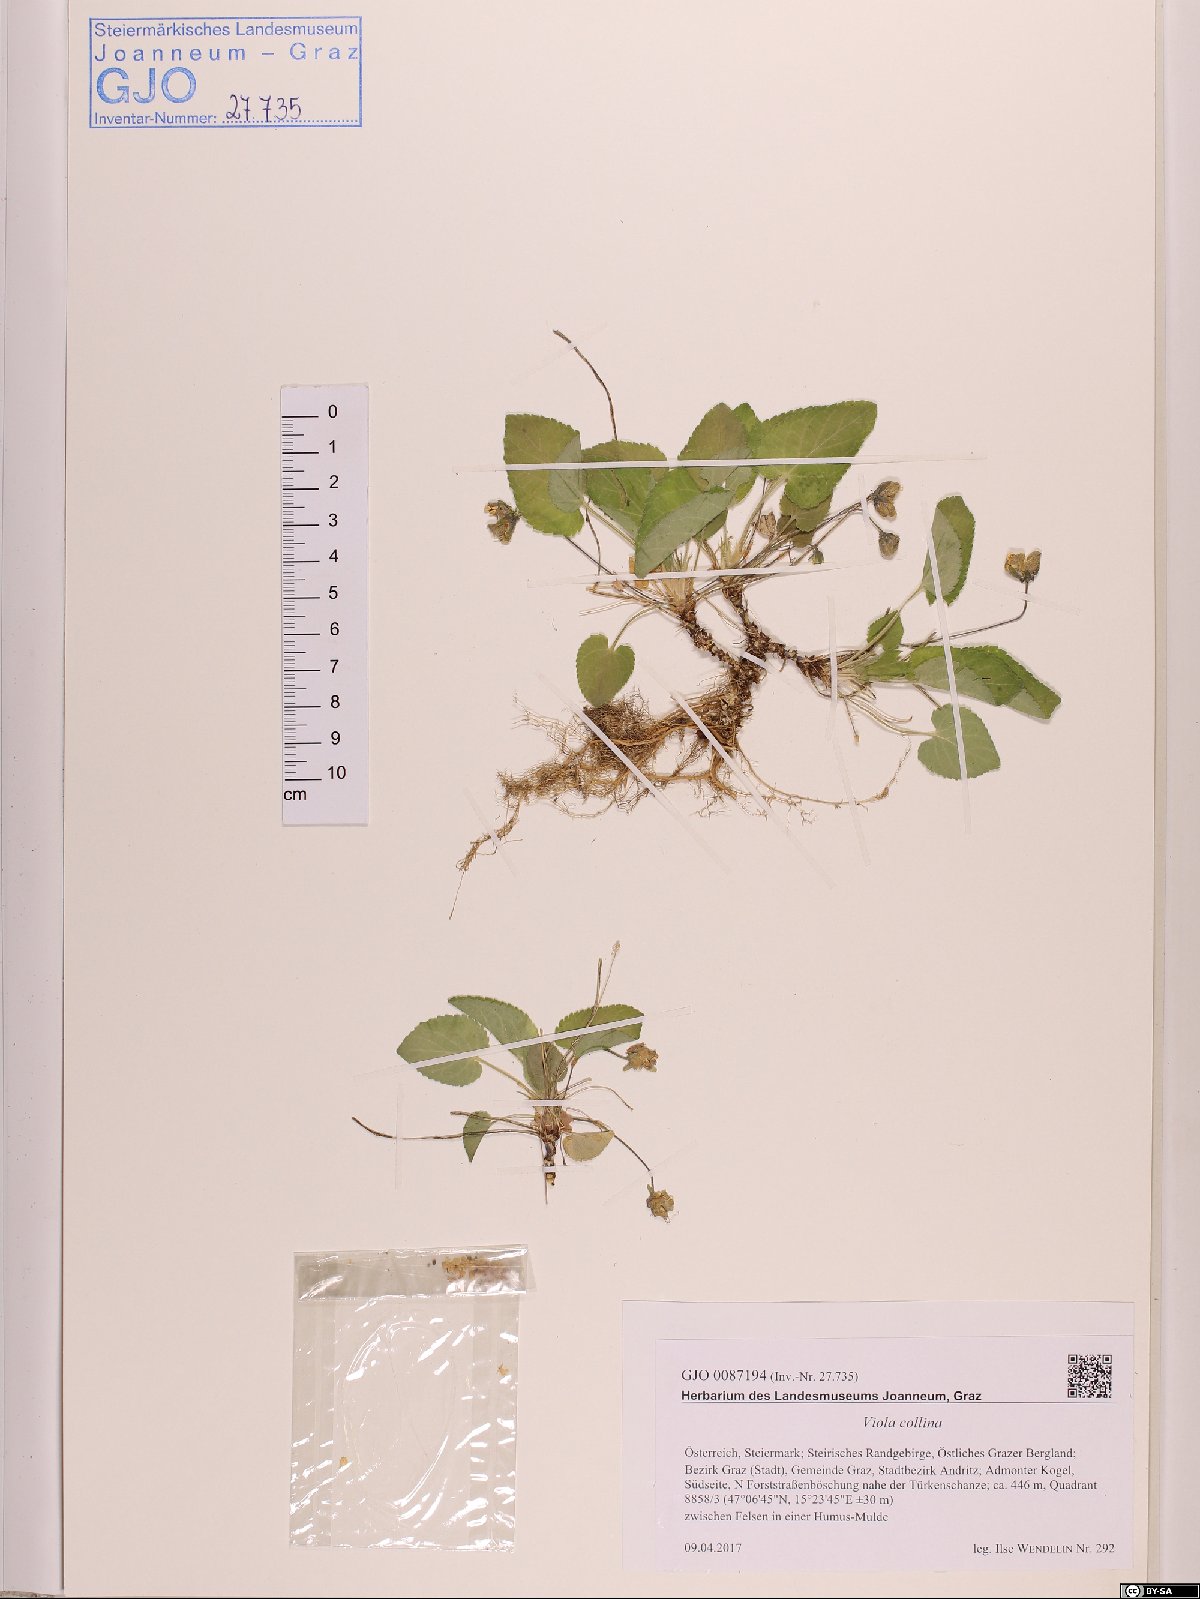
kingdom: Plantae
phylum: Tracheophyta
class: Magnoliopsida
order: Malpighiales
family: Violaceae
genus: Viola
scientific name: Viola collina
